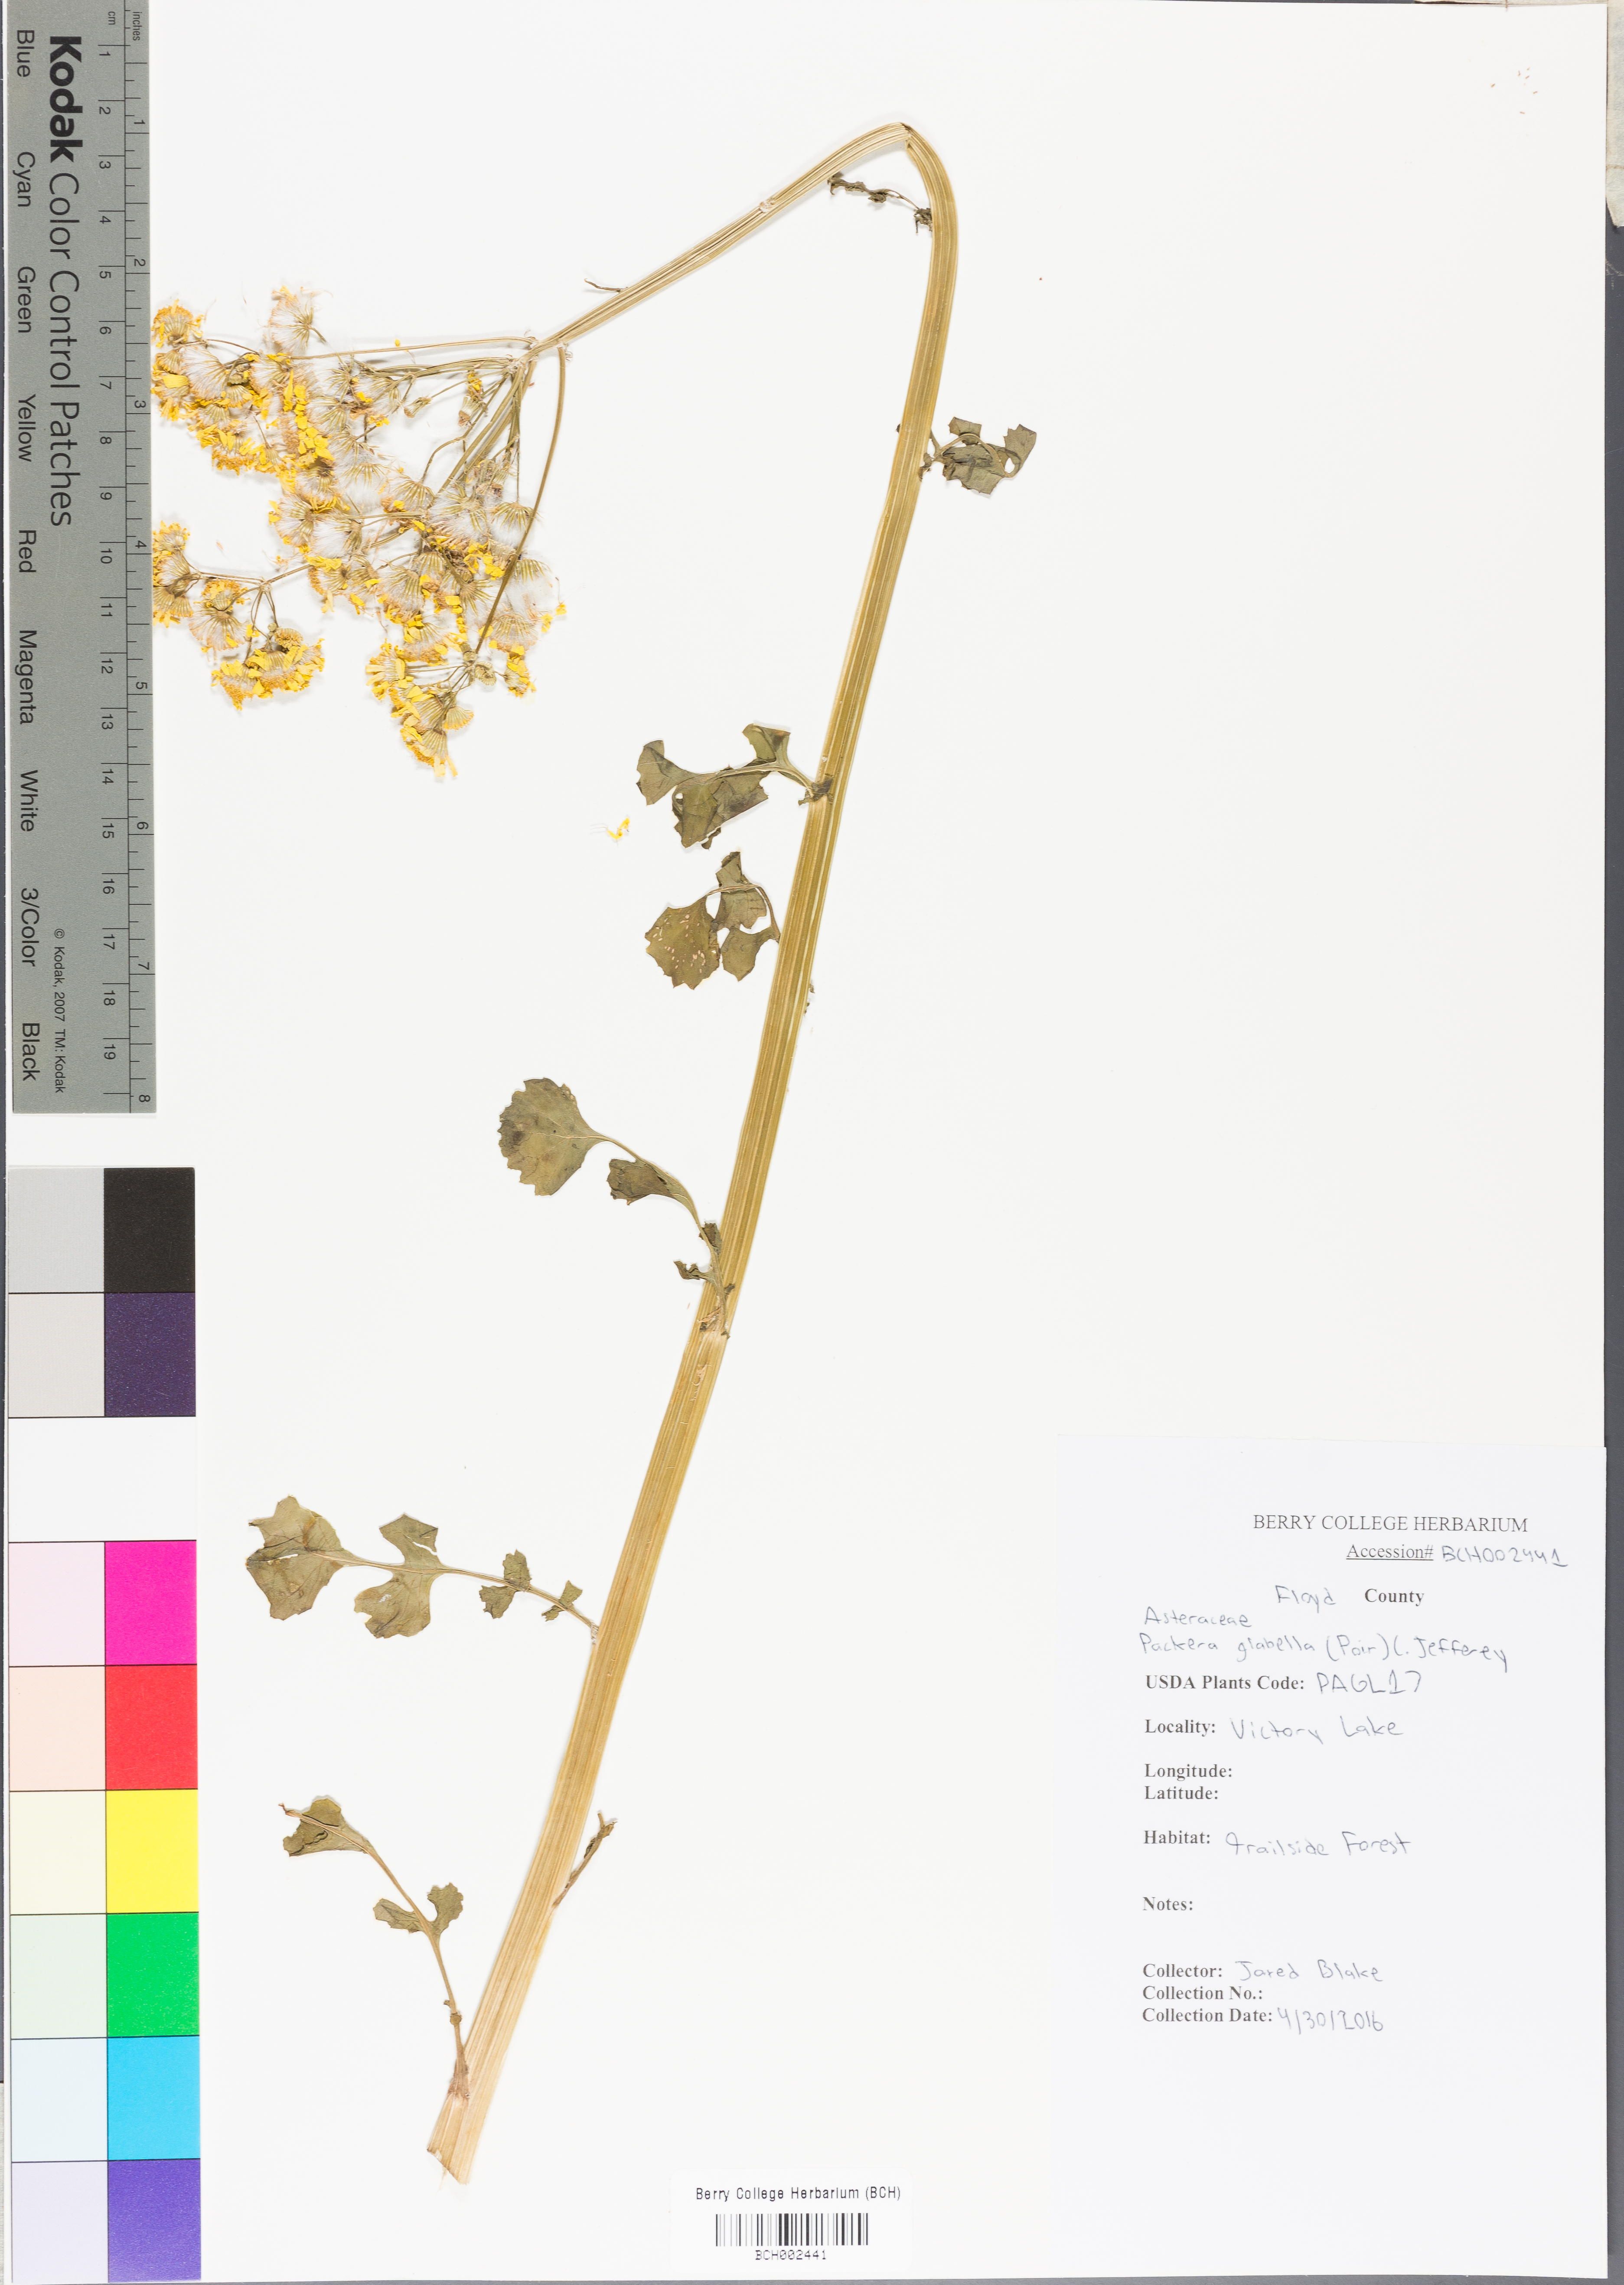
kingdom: Plantae
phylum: Tracheophyta
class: Magnoliopsida
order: Asterales
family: Asteraceae
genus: Packera
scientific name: Packera glabella
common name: Butterweed
